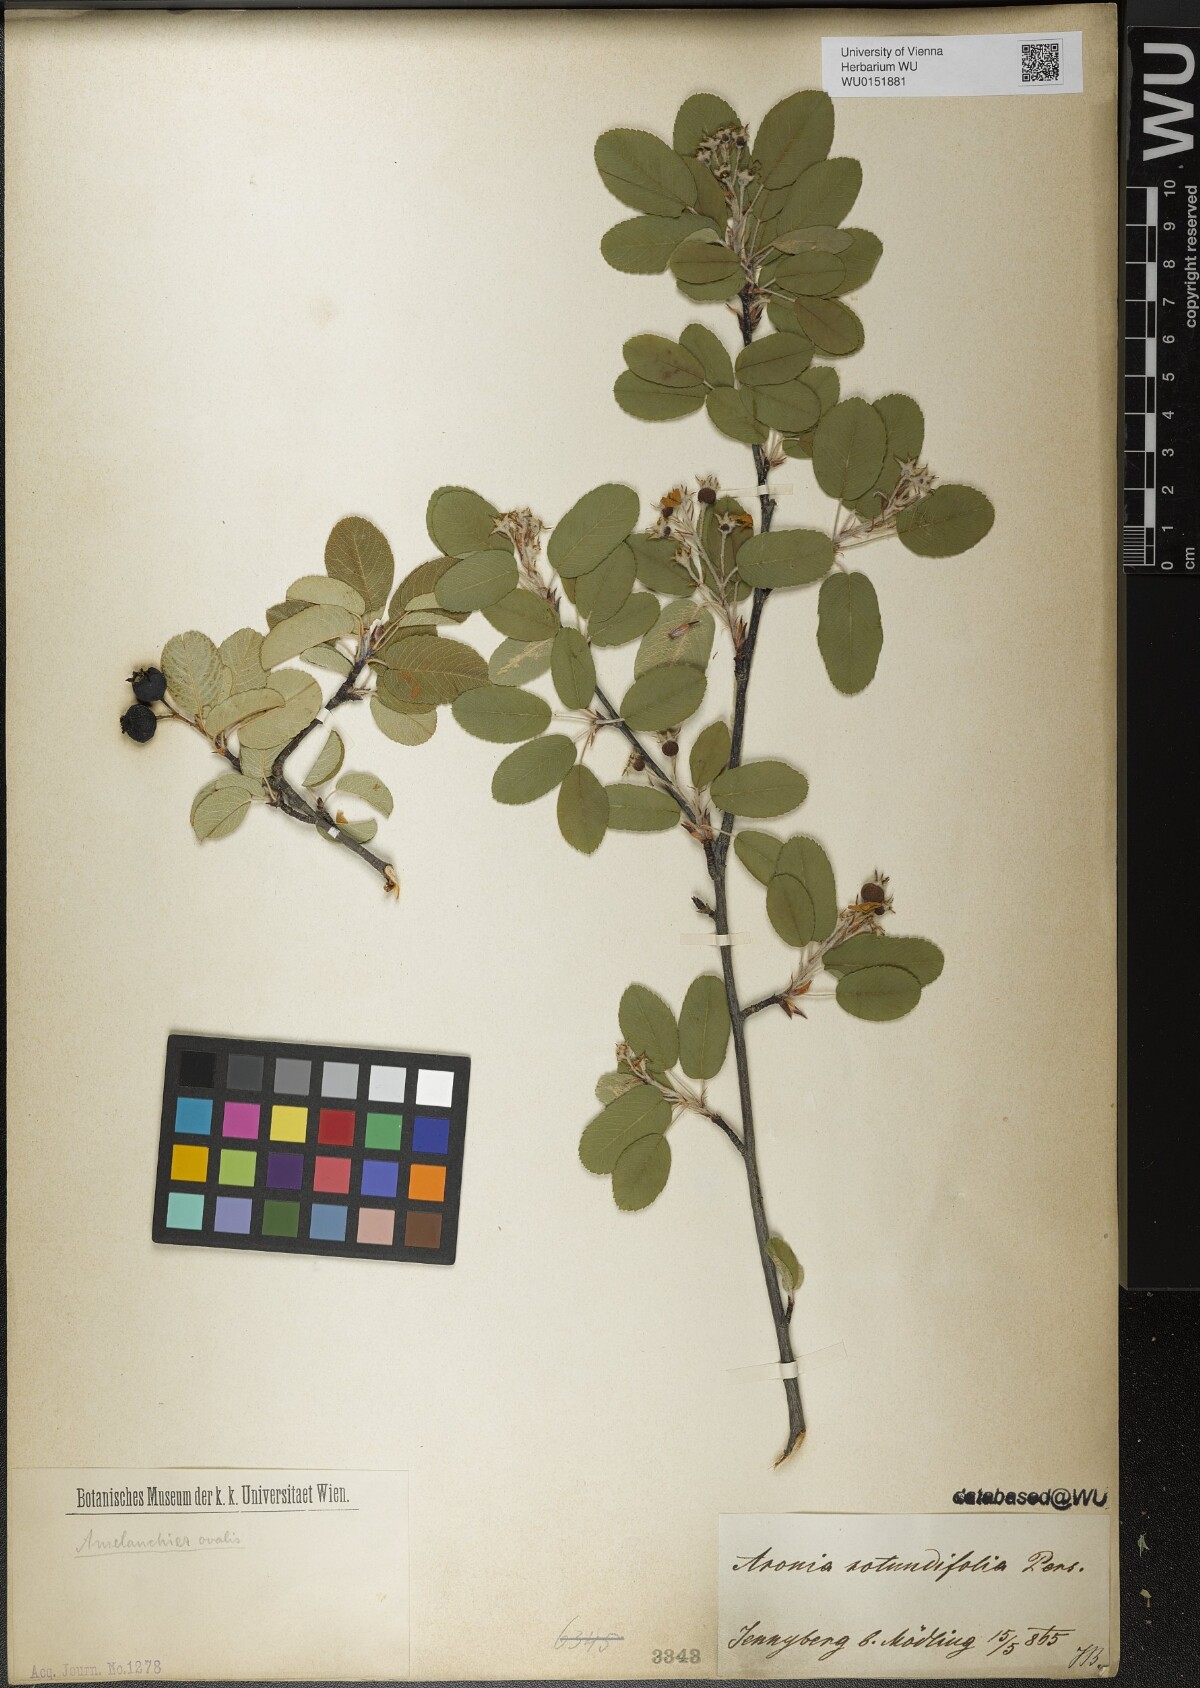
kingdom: Plantae
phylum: Tracheophyta
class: Magnoliopsida
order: Rosales
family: Rosaceae
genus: Amelanchier
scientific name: Amelanchier ovalis
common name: Serviceberry
